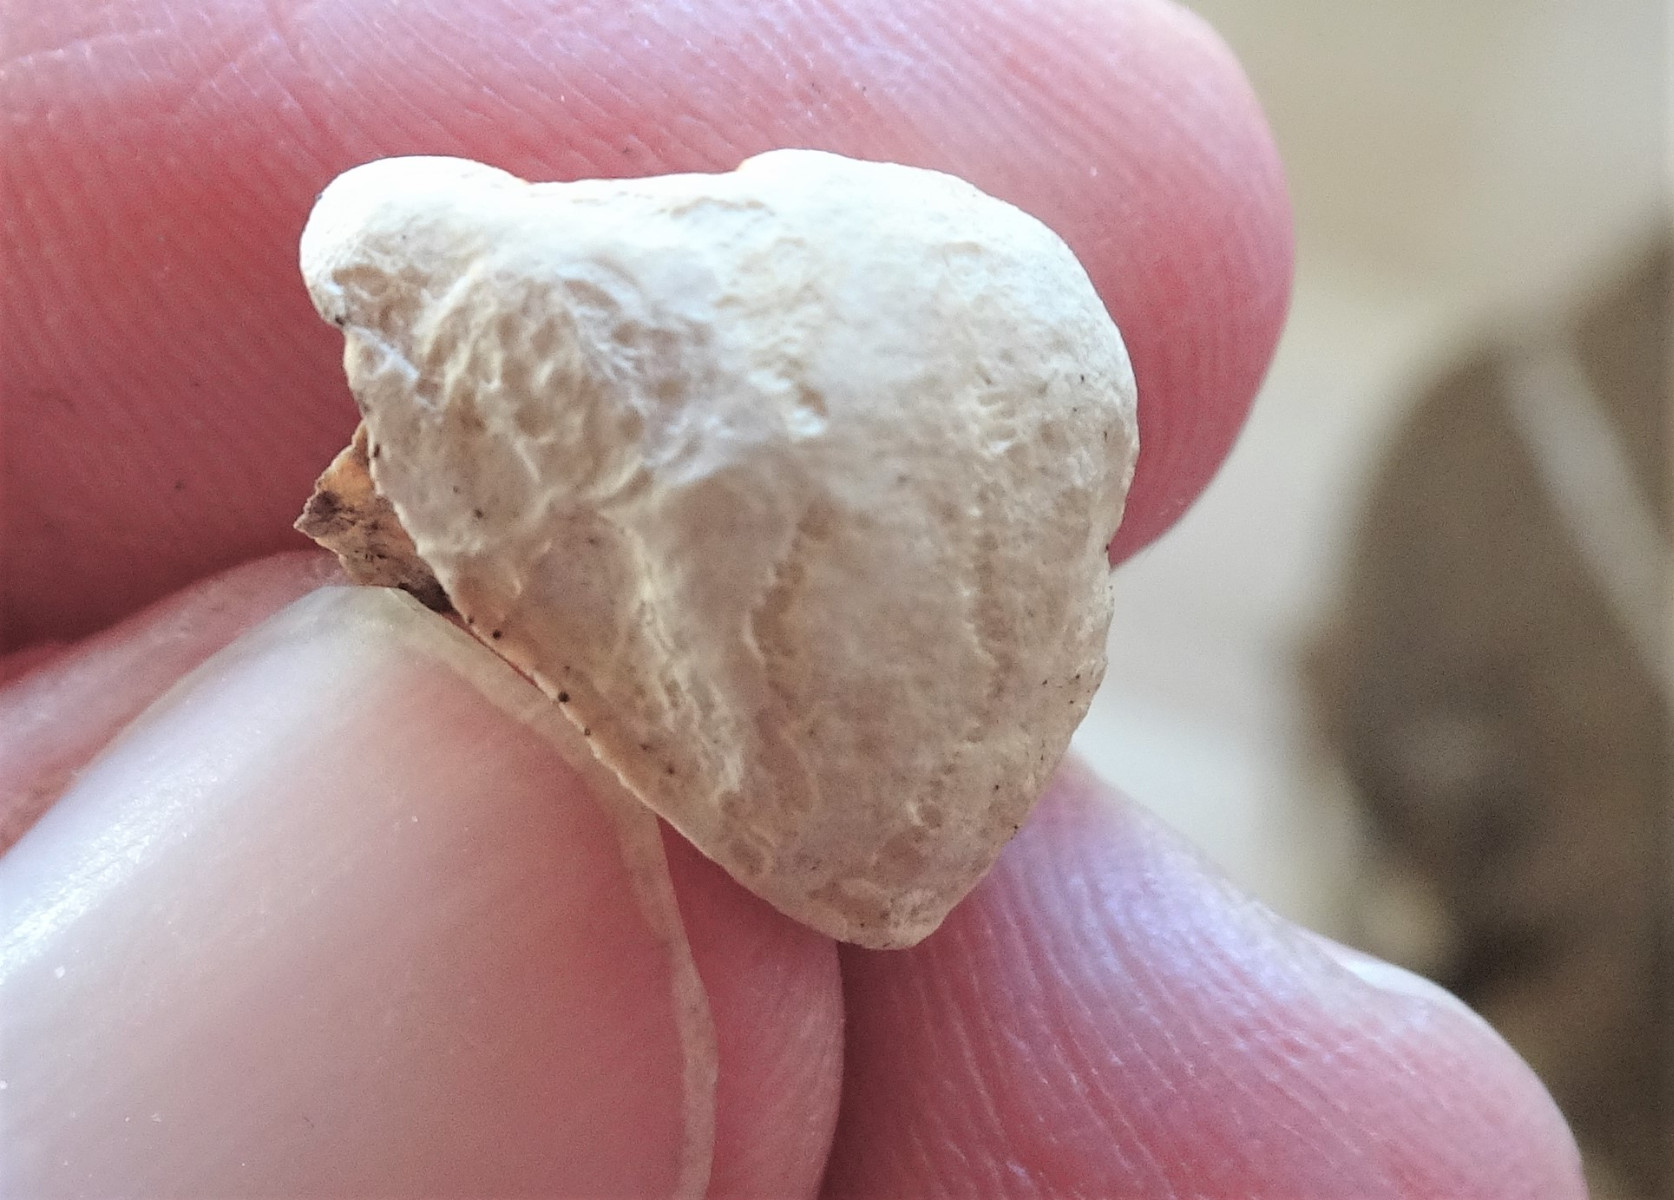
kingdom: Fungi
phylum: Basidiomycota
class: Agaricomycetes
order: Polyporales
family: Fomitopsidaceae
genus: Fomitopsis
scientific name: Fomitopsis pinicola
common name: randbæltet hovporesvamp
